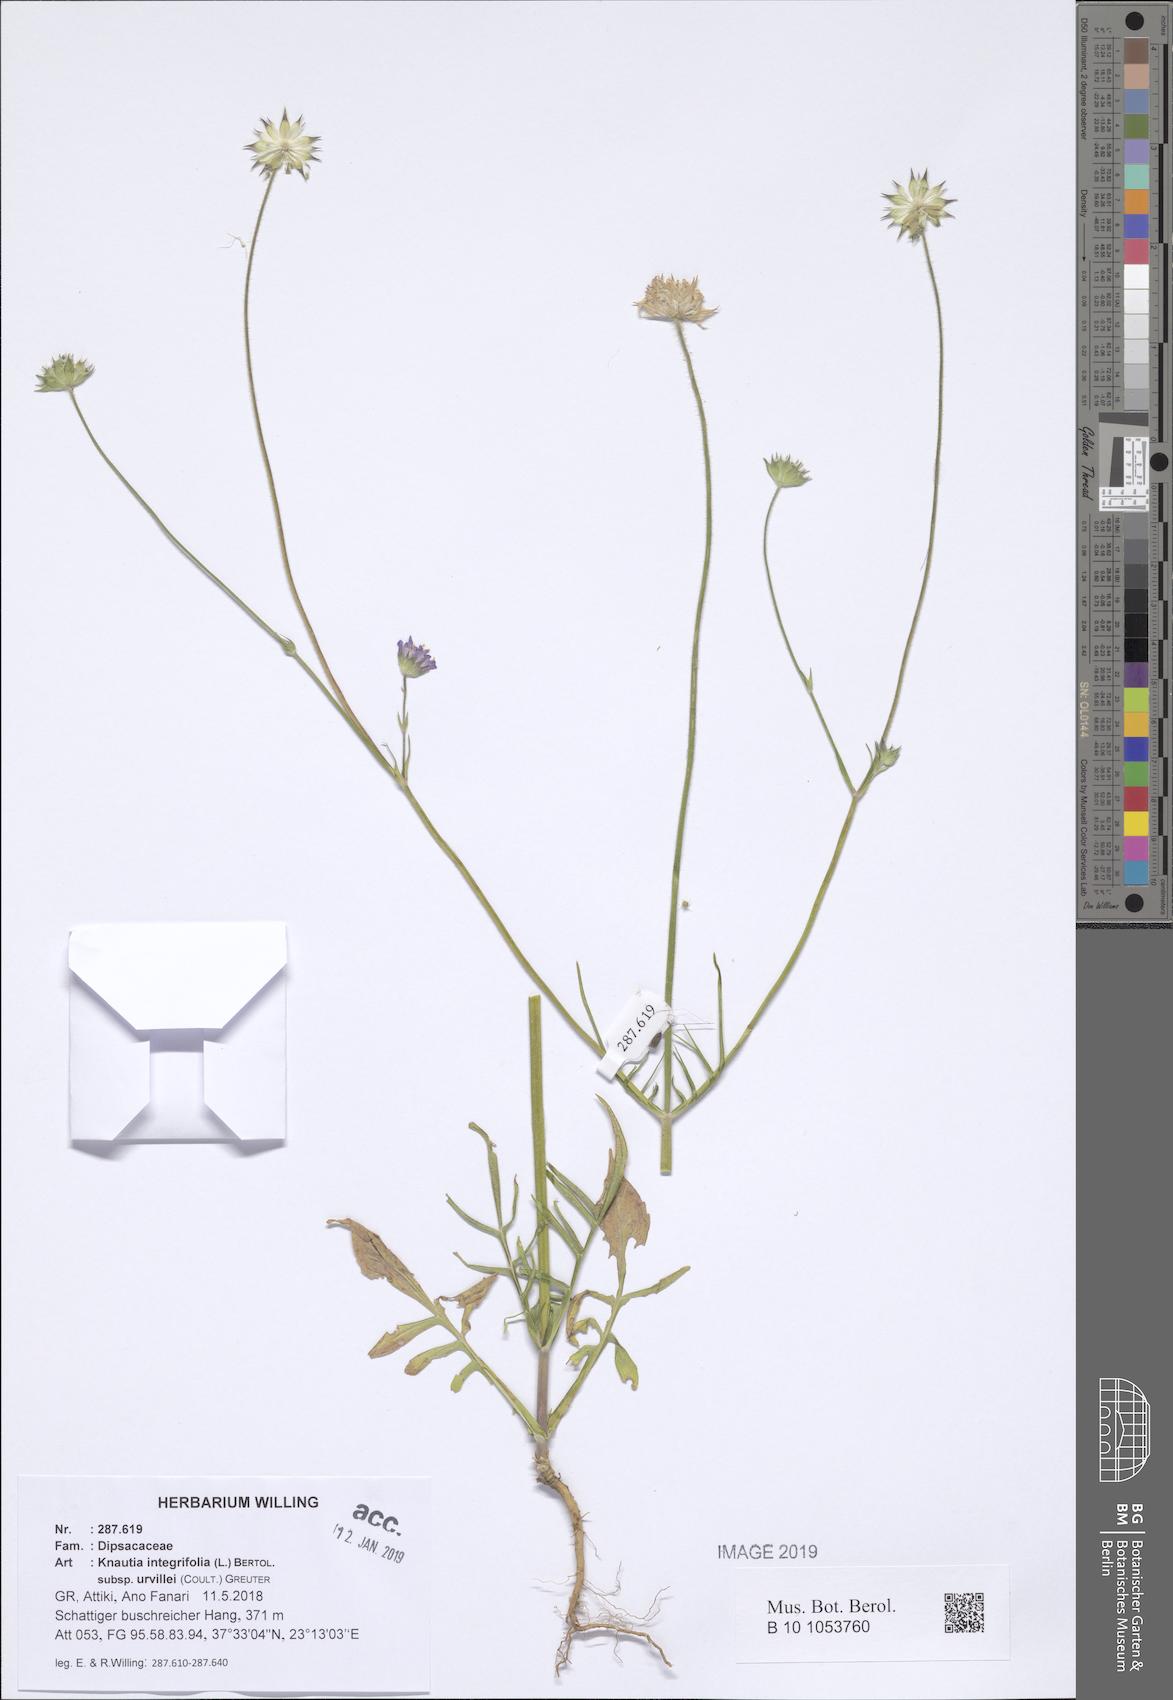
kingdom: Plantae
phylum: Tracheophyta
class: Magnoliopsida
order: Dipsacales
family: Caprifoliaceae
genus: Knautia
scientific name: Knautia integrifolia
